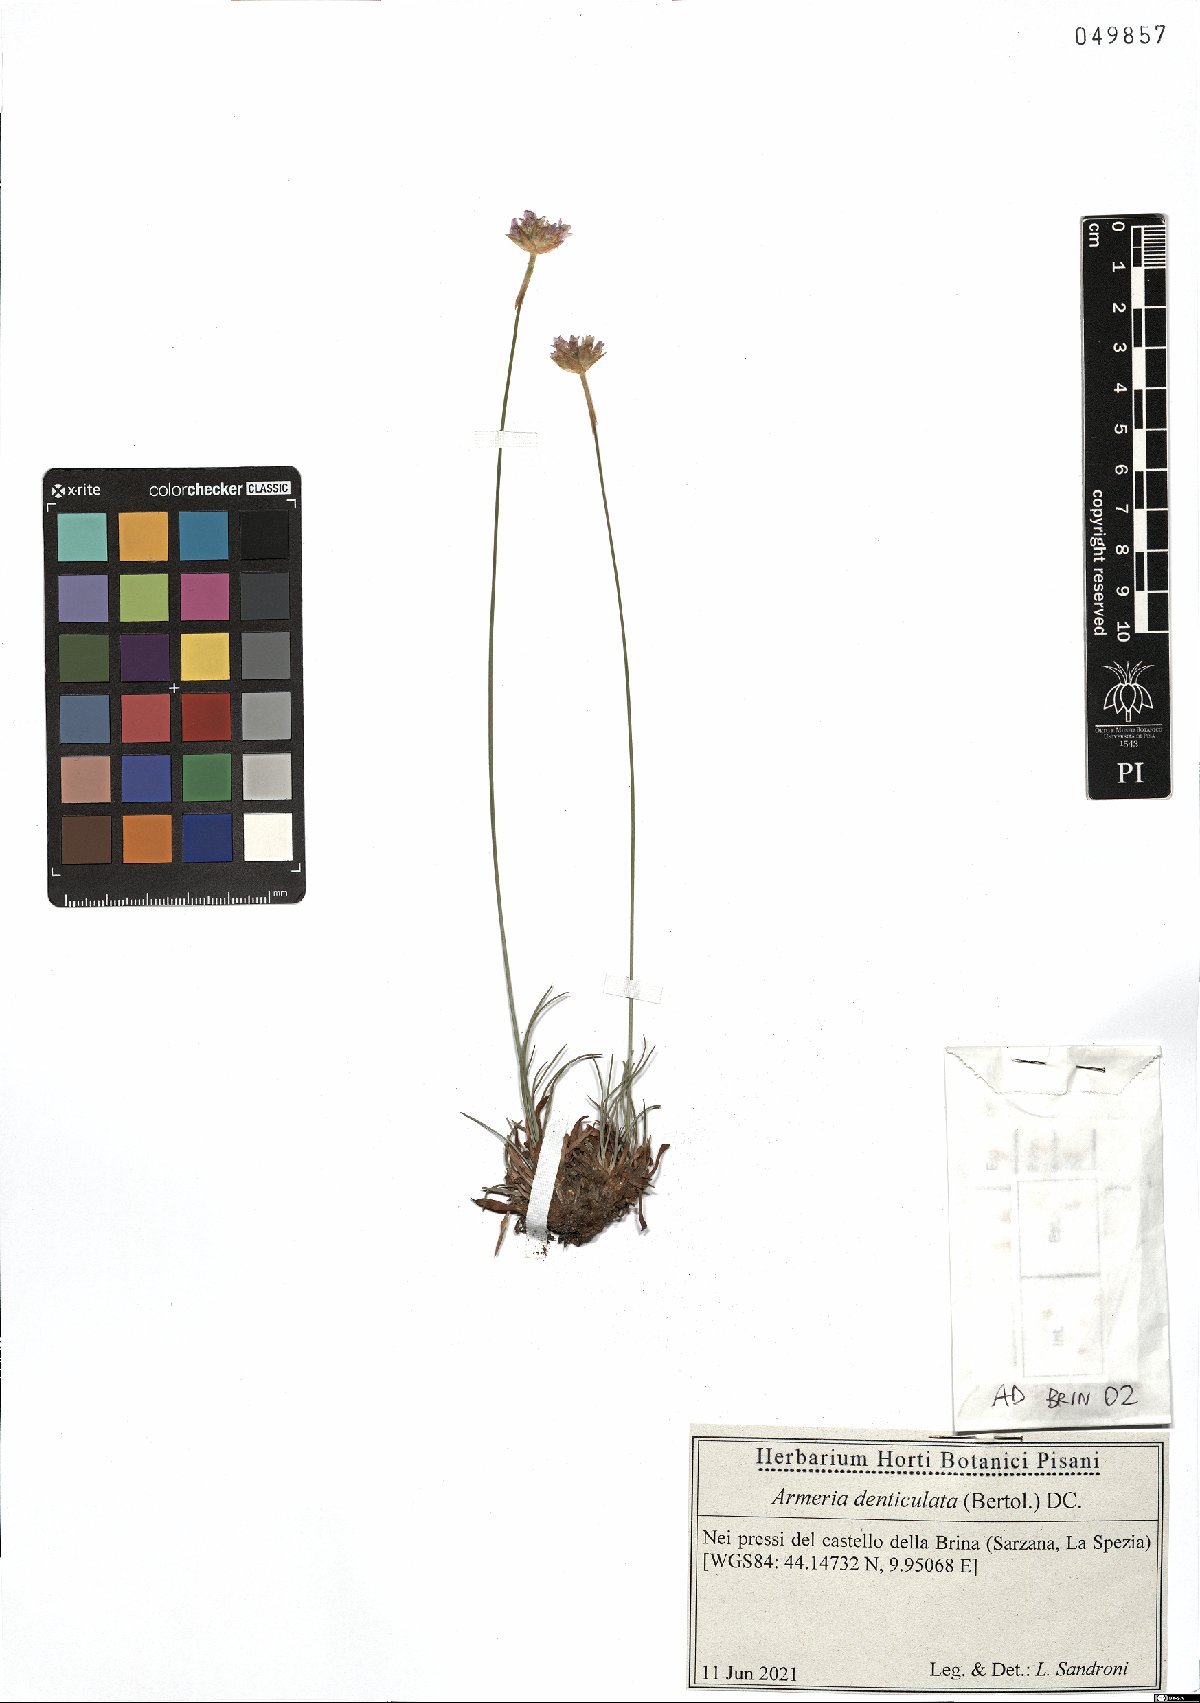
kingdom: Plantae
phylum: Tracheophyta
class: Magnoliopsida
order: Caryophyllales
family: Plumbaginaceae
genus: Armeria
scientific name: Armeria denticulata
